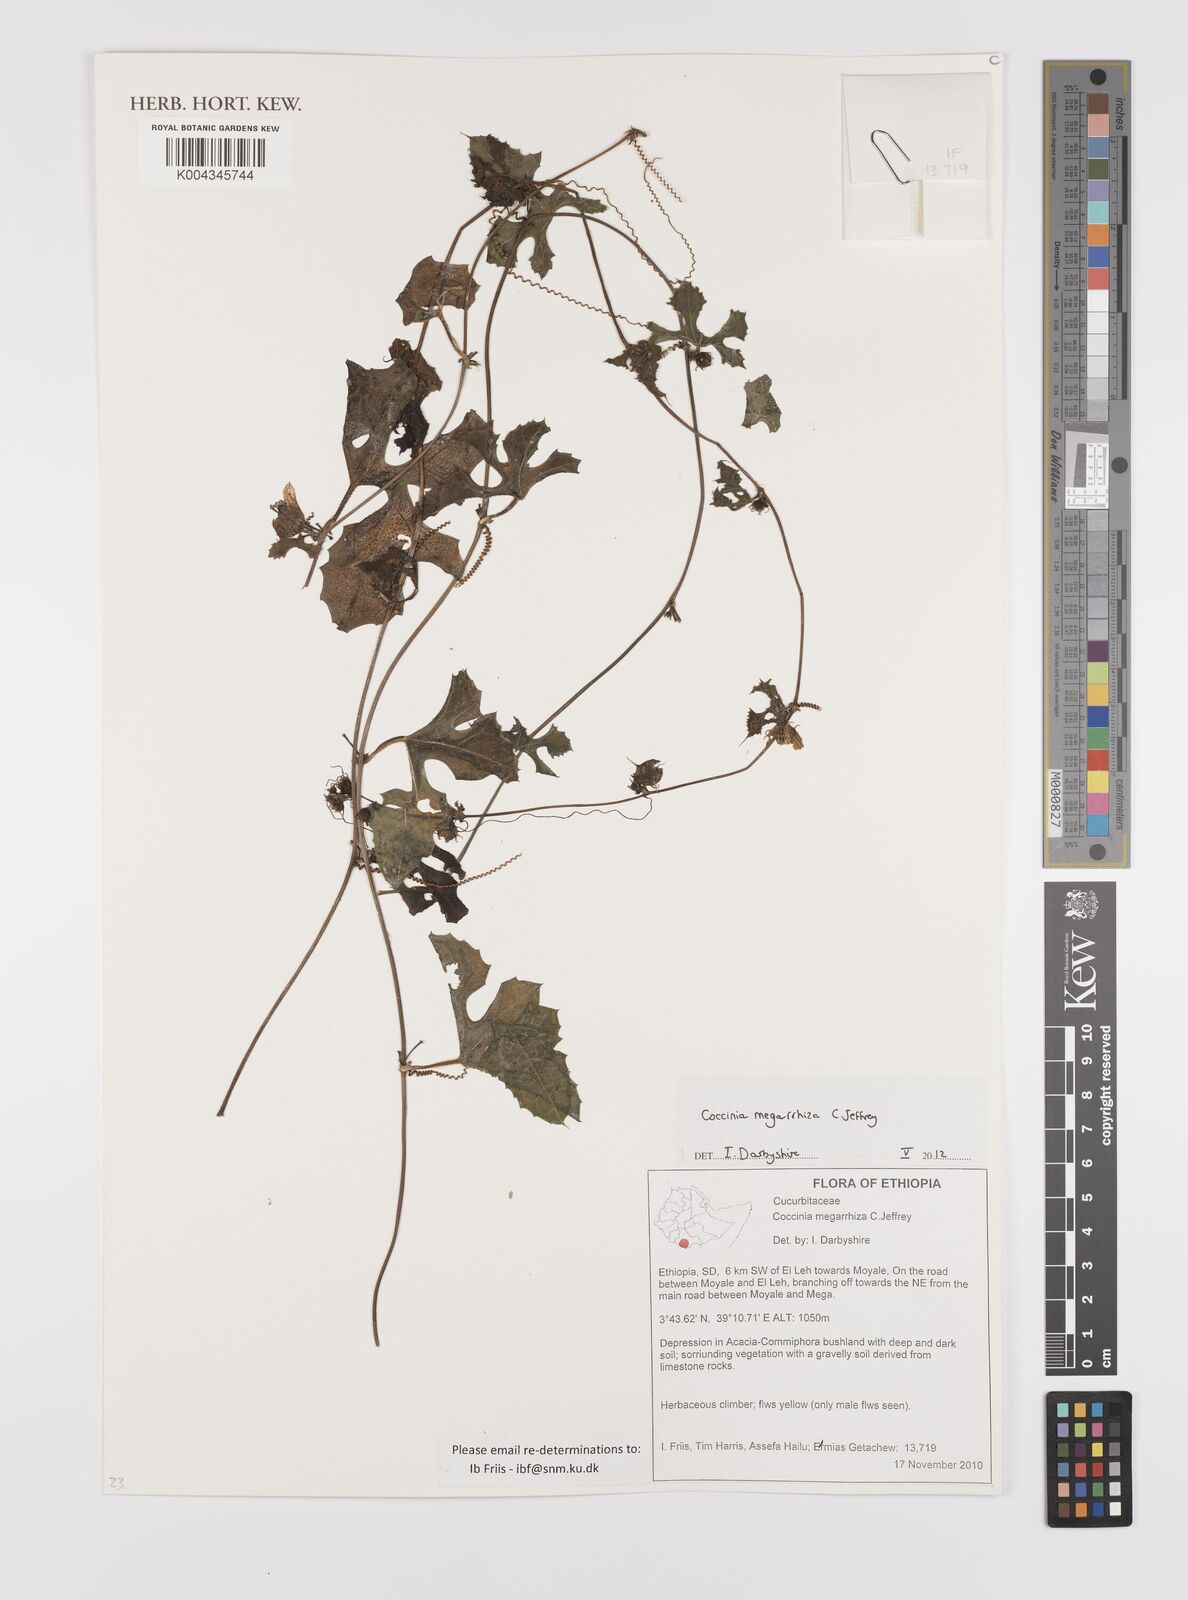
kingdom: Plantae
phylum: Tracheophyta
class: Magnoliopsida
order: Cucurbitales
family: Cucurbitaceae
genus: Coccinia
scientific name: Coccinia megarrhiza
